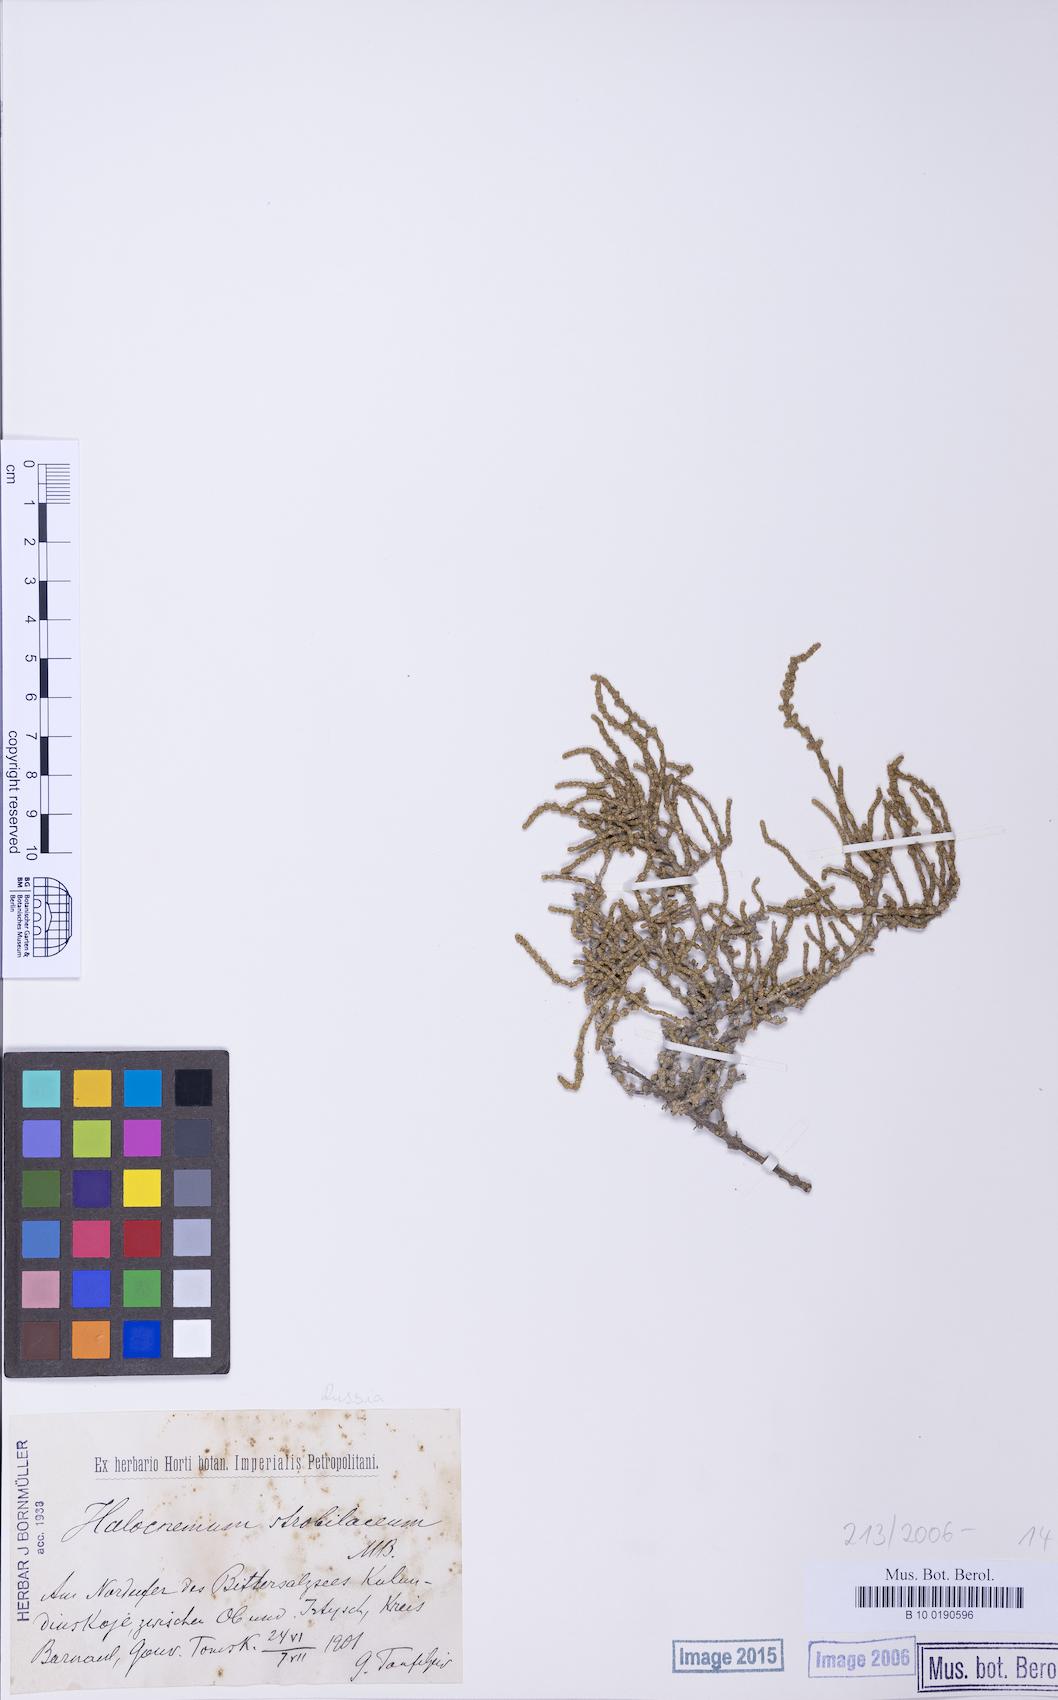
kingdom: Plantae
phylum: Tracheophyta
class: Magnoliopsida
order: Caryophyllales
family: Amaranthaceae
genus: Halocnemum
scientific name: Halocnemum strobilaceum
